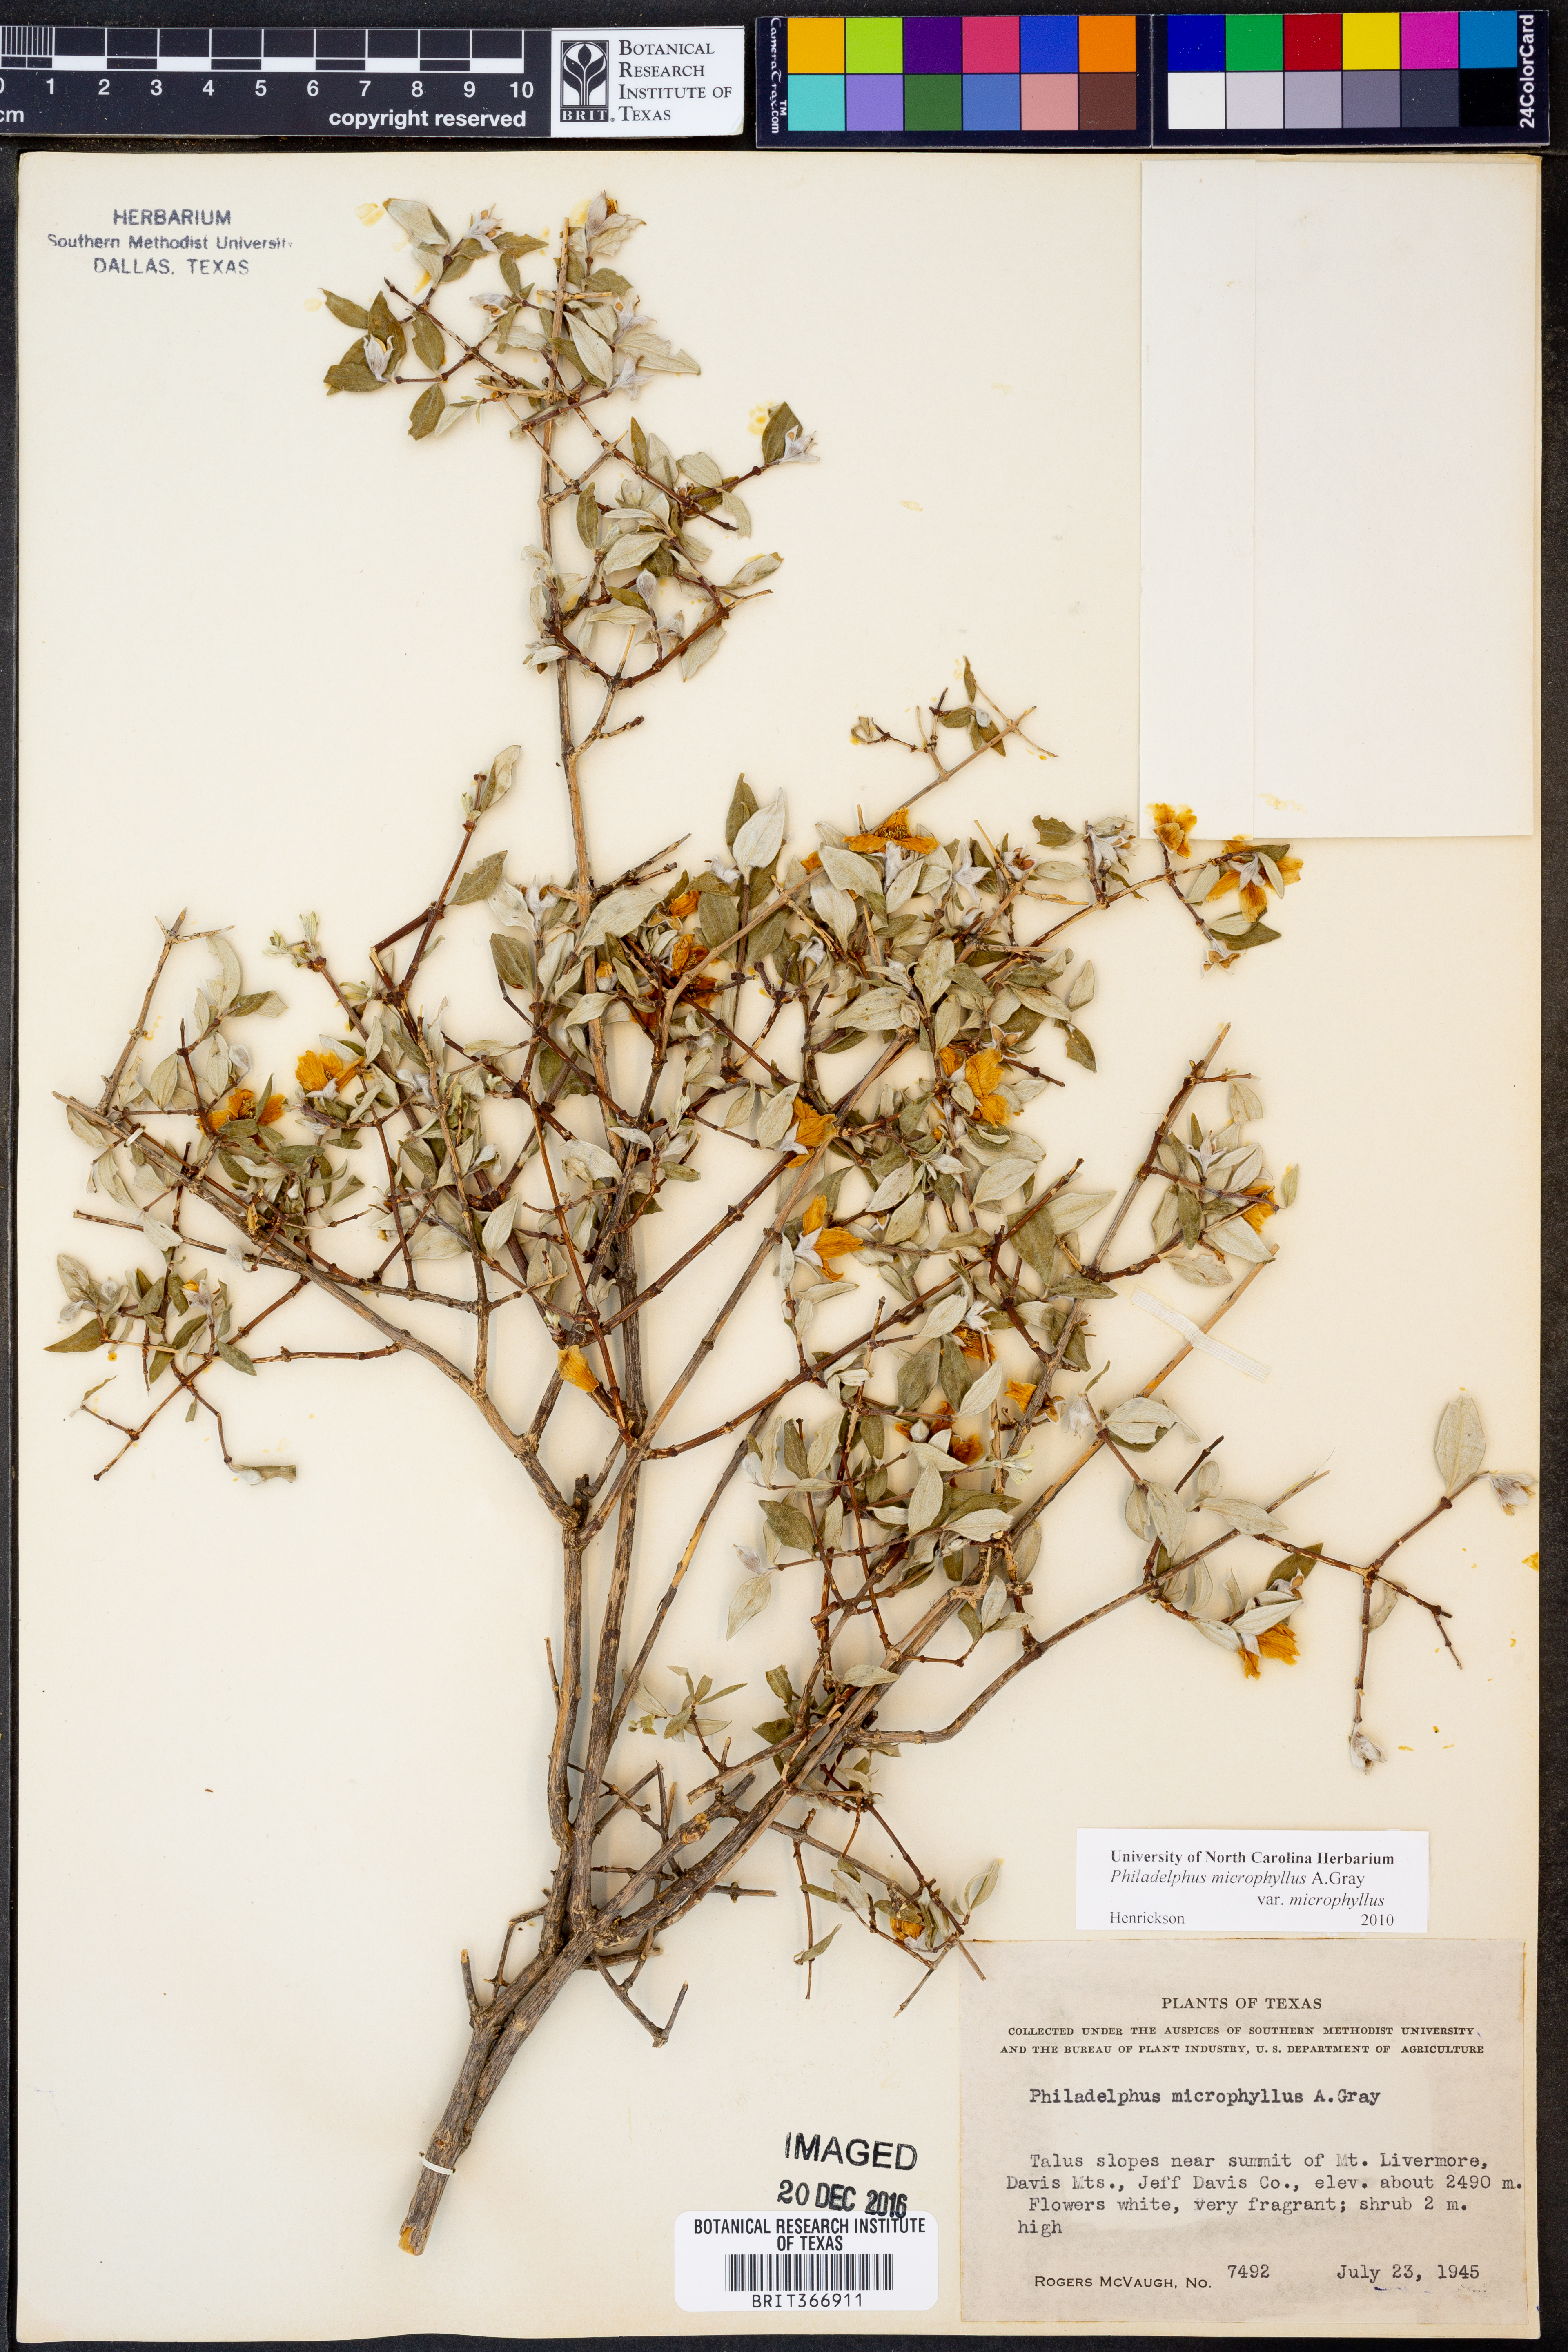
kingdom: Plantae
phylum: Tracheophyta
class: Magnoliopsida
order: Cornales
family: Hydrangeaceae
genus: Philadelphus
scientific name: Philadelphus microphyllus
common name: Desert mock orange
